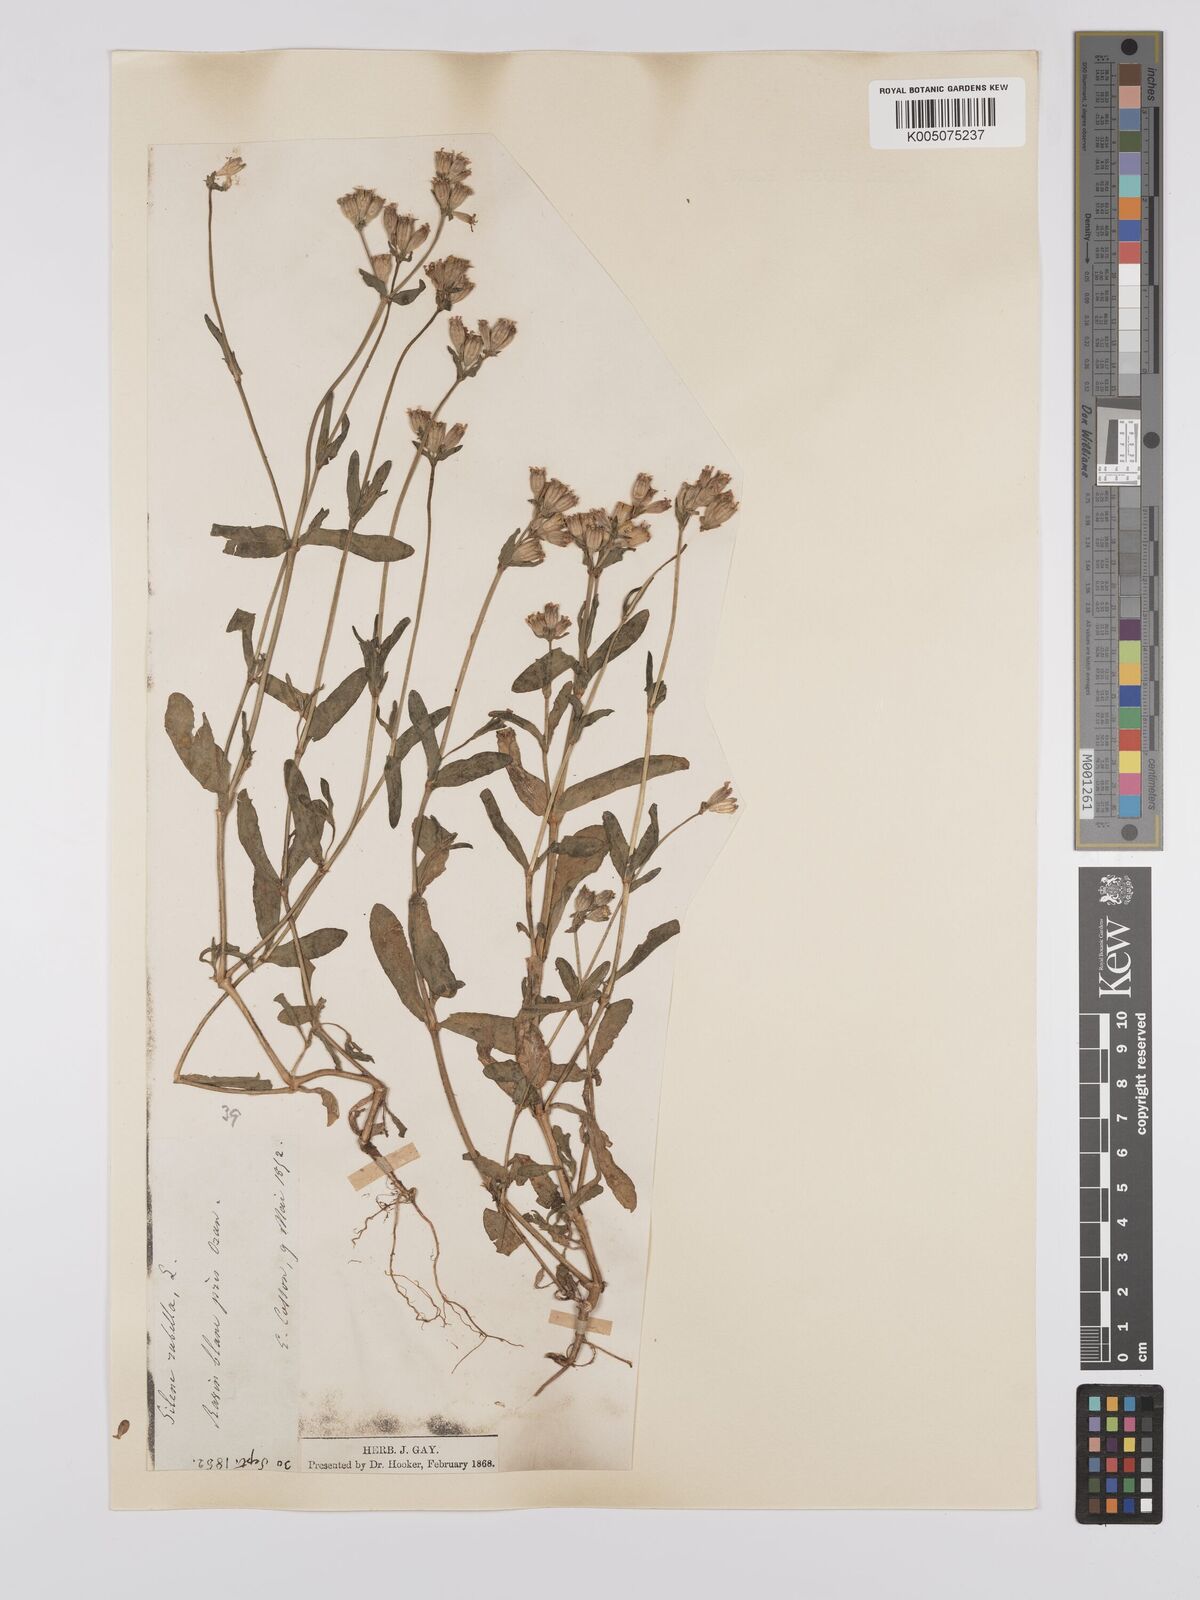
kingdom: Plantae
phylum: Tracheophyta
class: Magnoliopsida
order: Caryophyllales
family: Caryophyllaceae
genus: Silene
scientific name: Silene rubella
